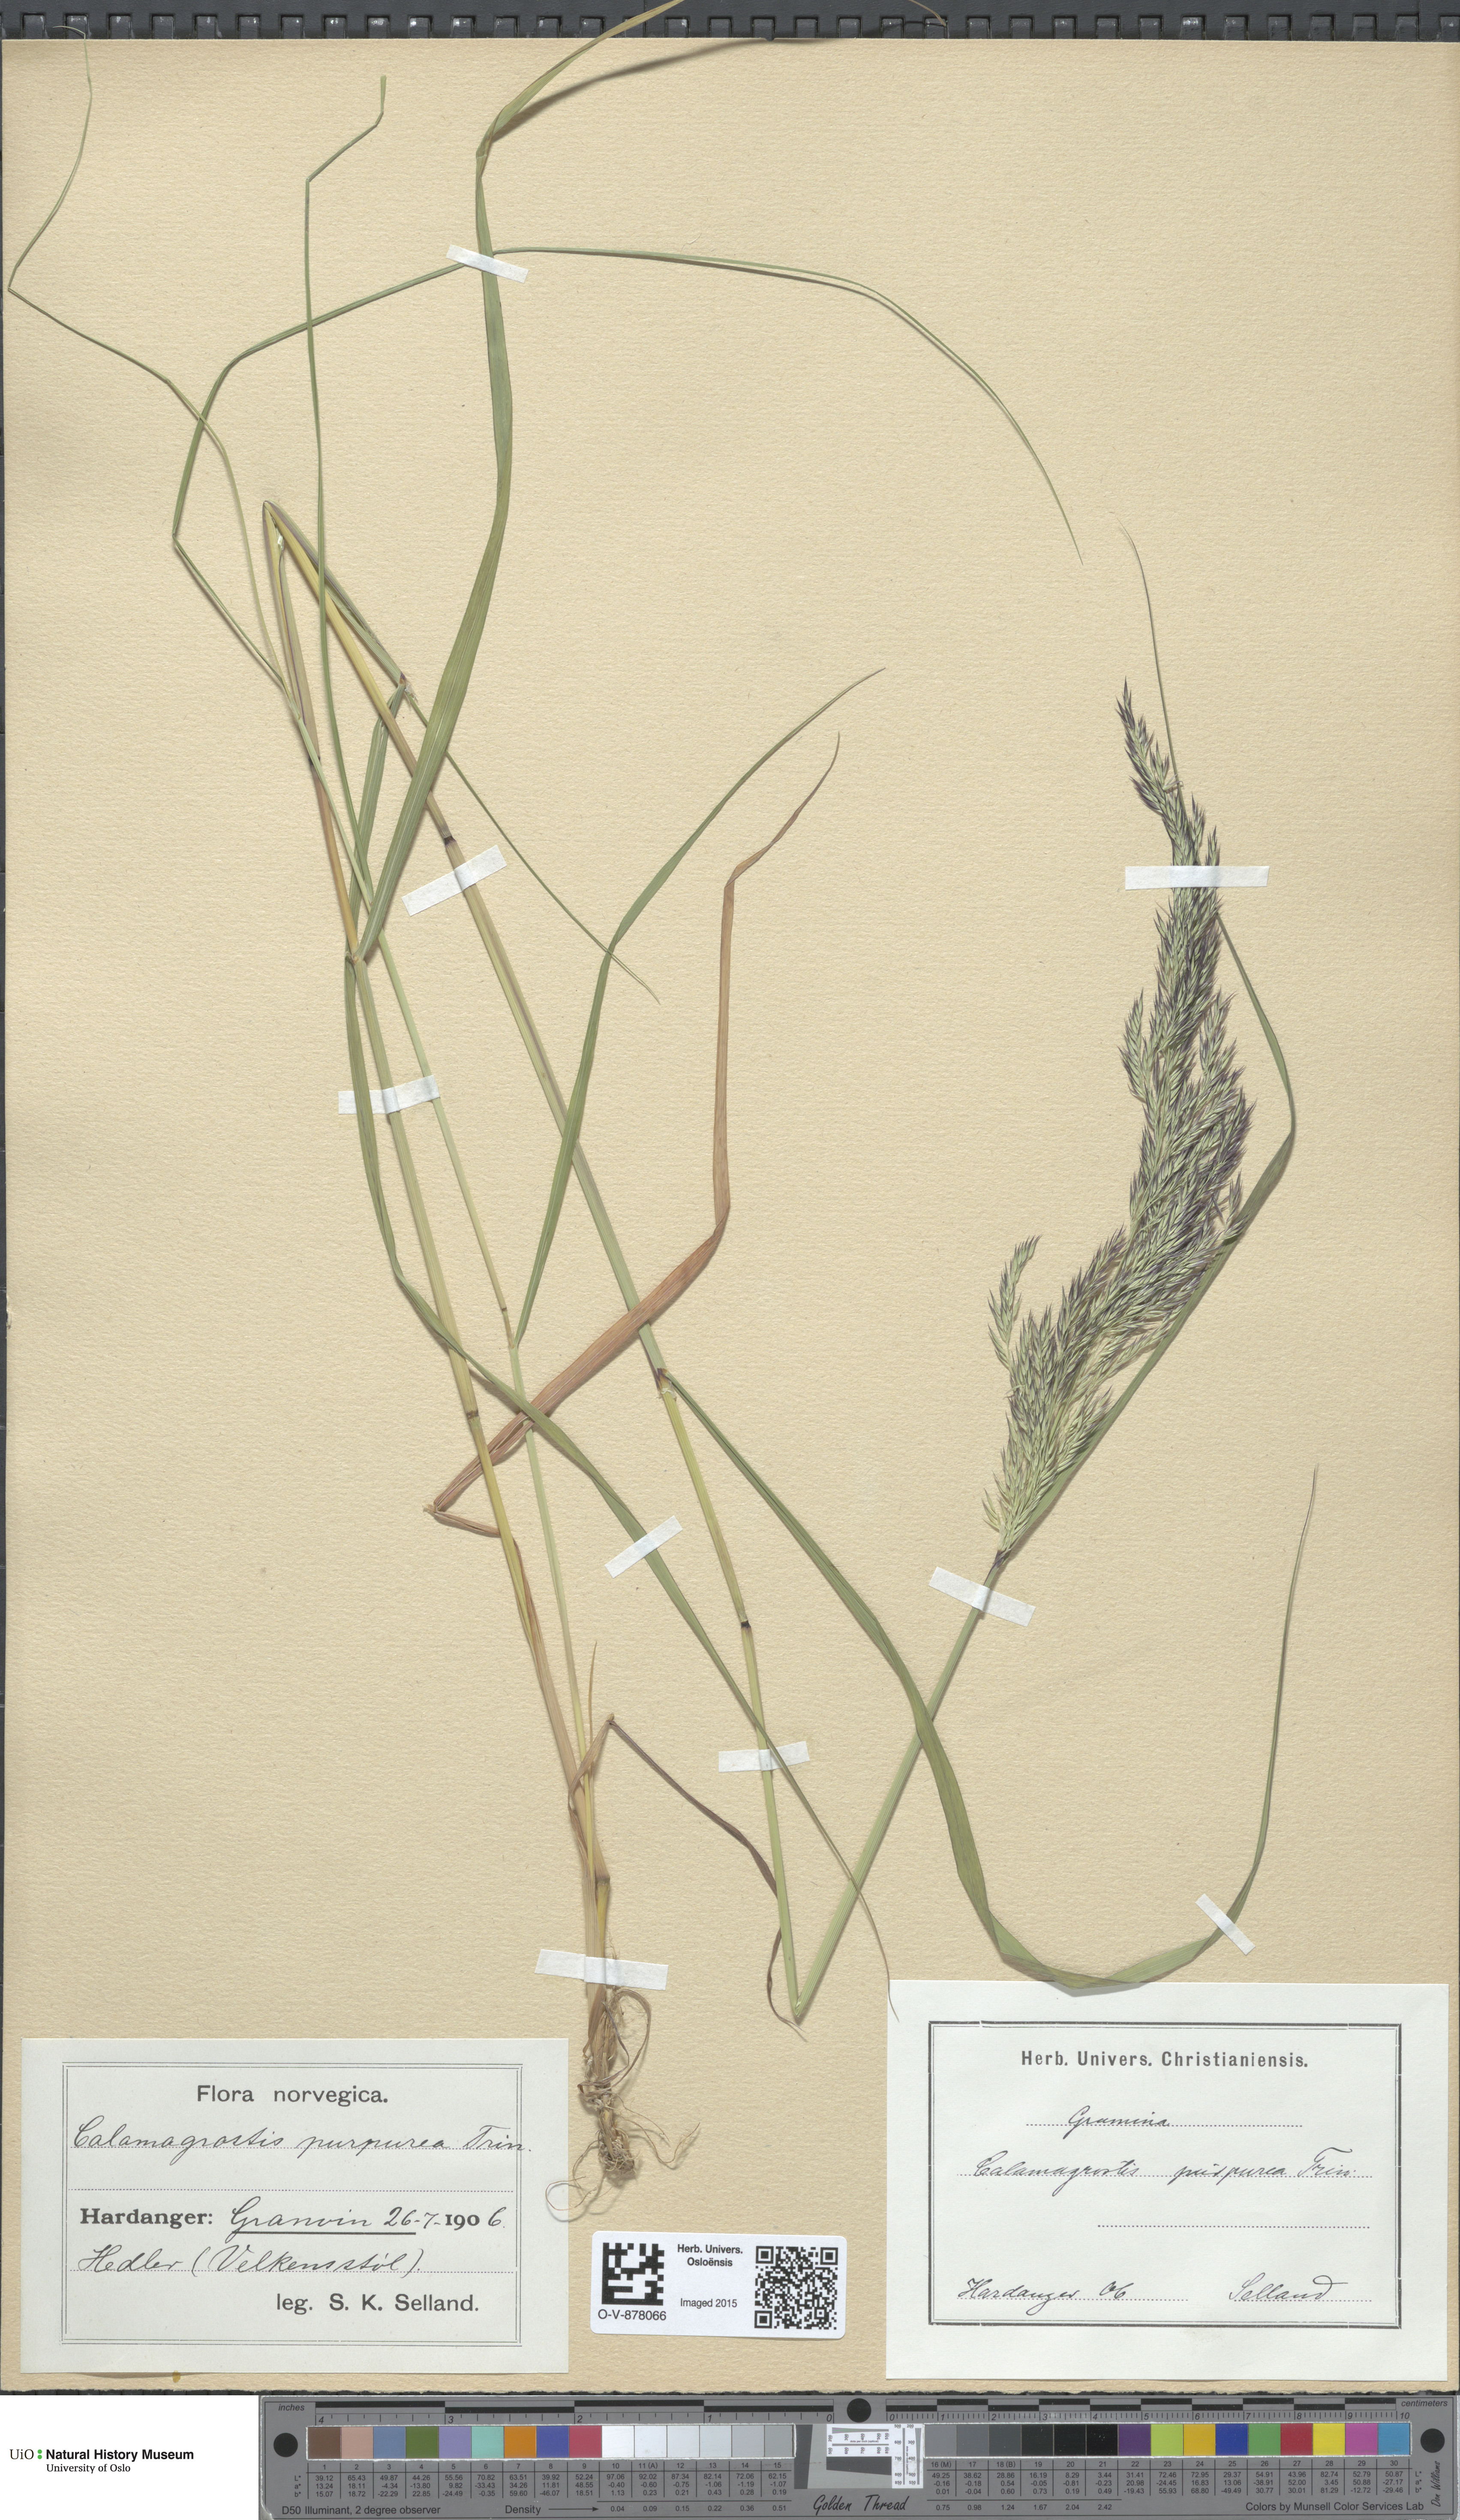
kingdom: Plantae
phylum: Tracheophyta
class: Liliopsida
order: Poales
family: Poaceae
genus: Calamagrostis
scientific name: Calamagrostis purpurea
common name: Scandinavian small-reed
